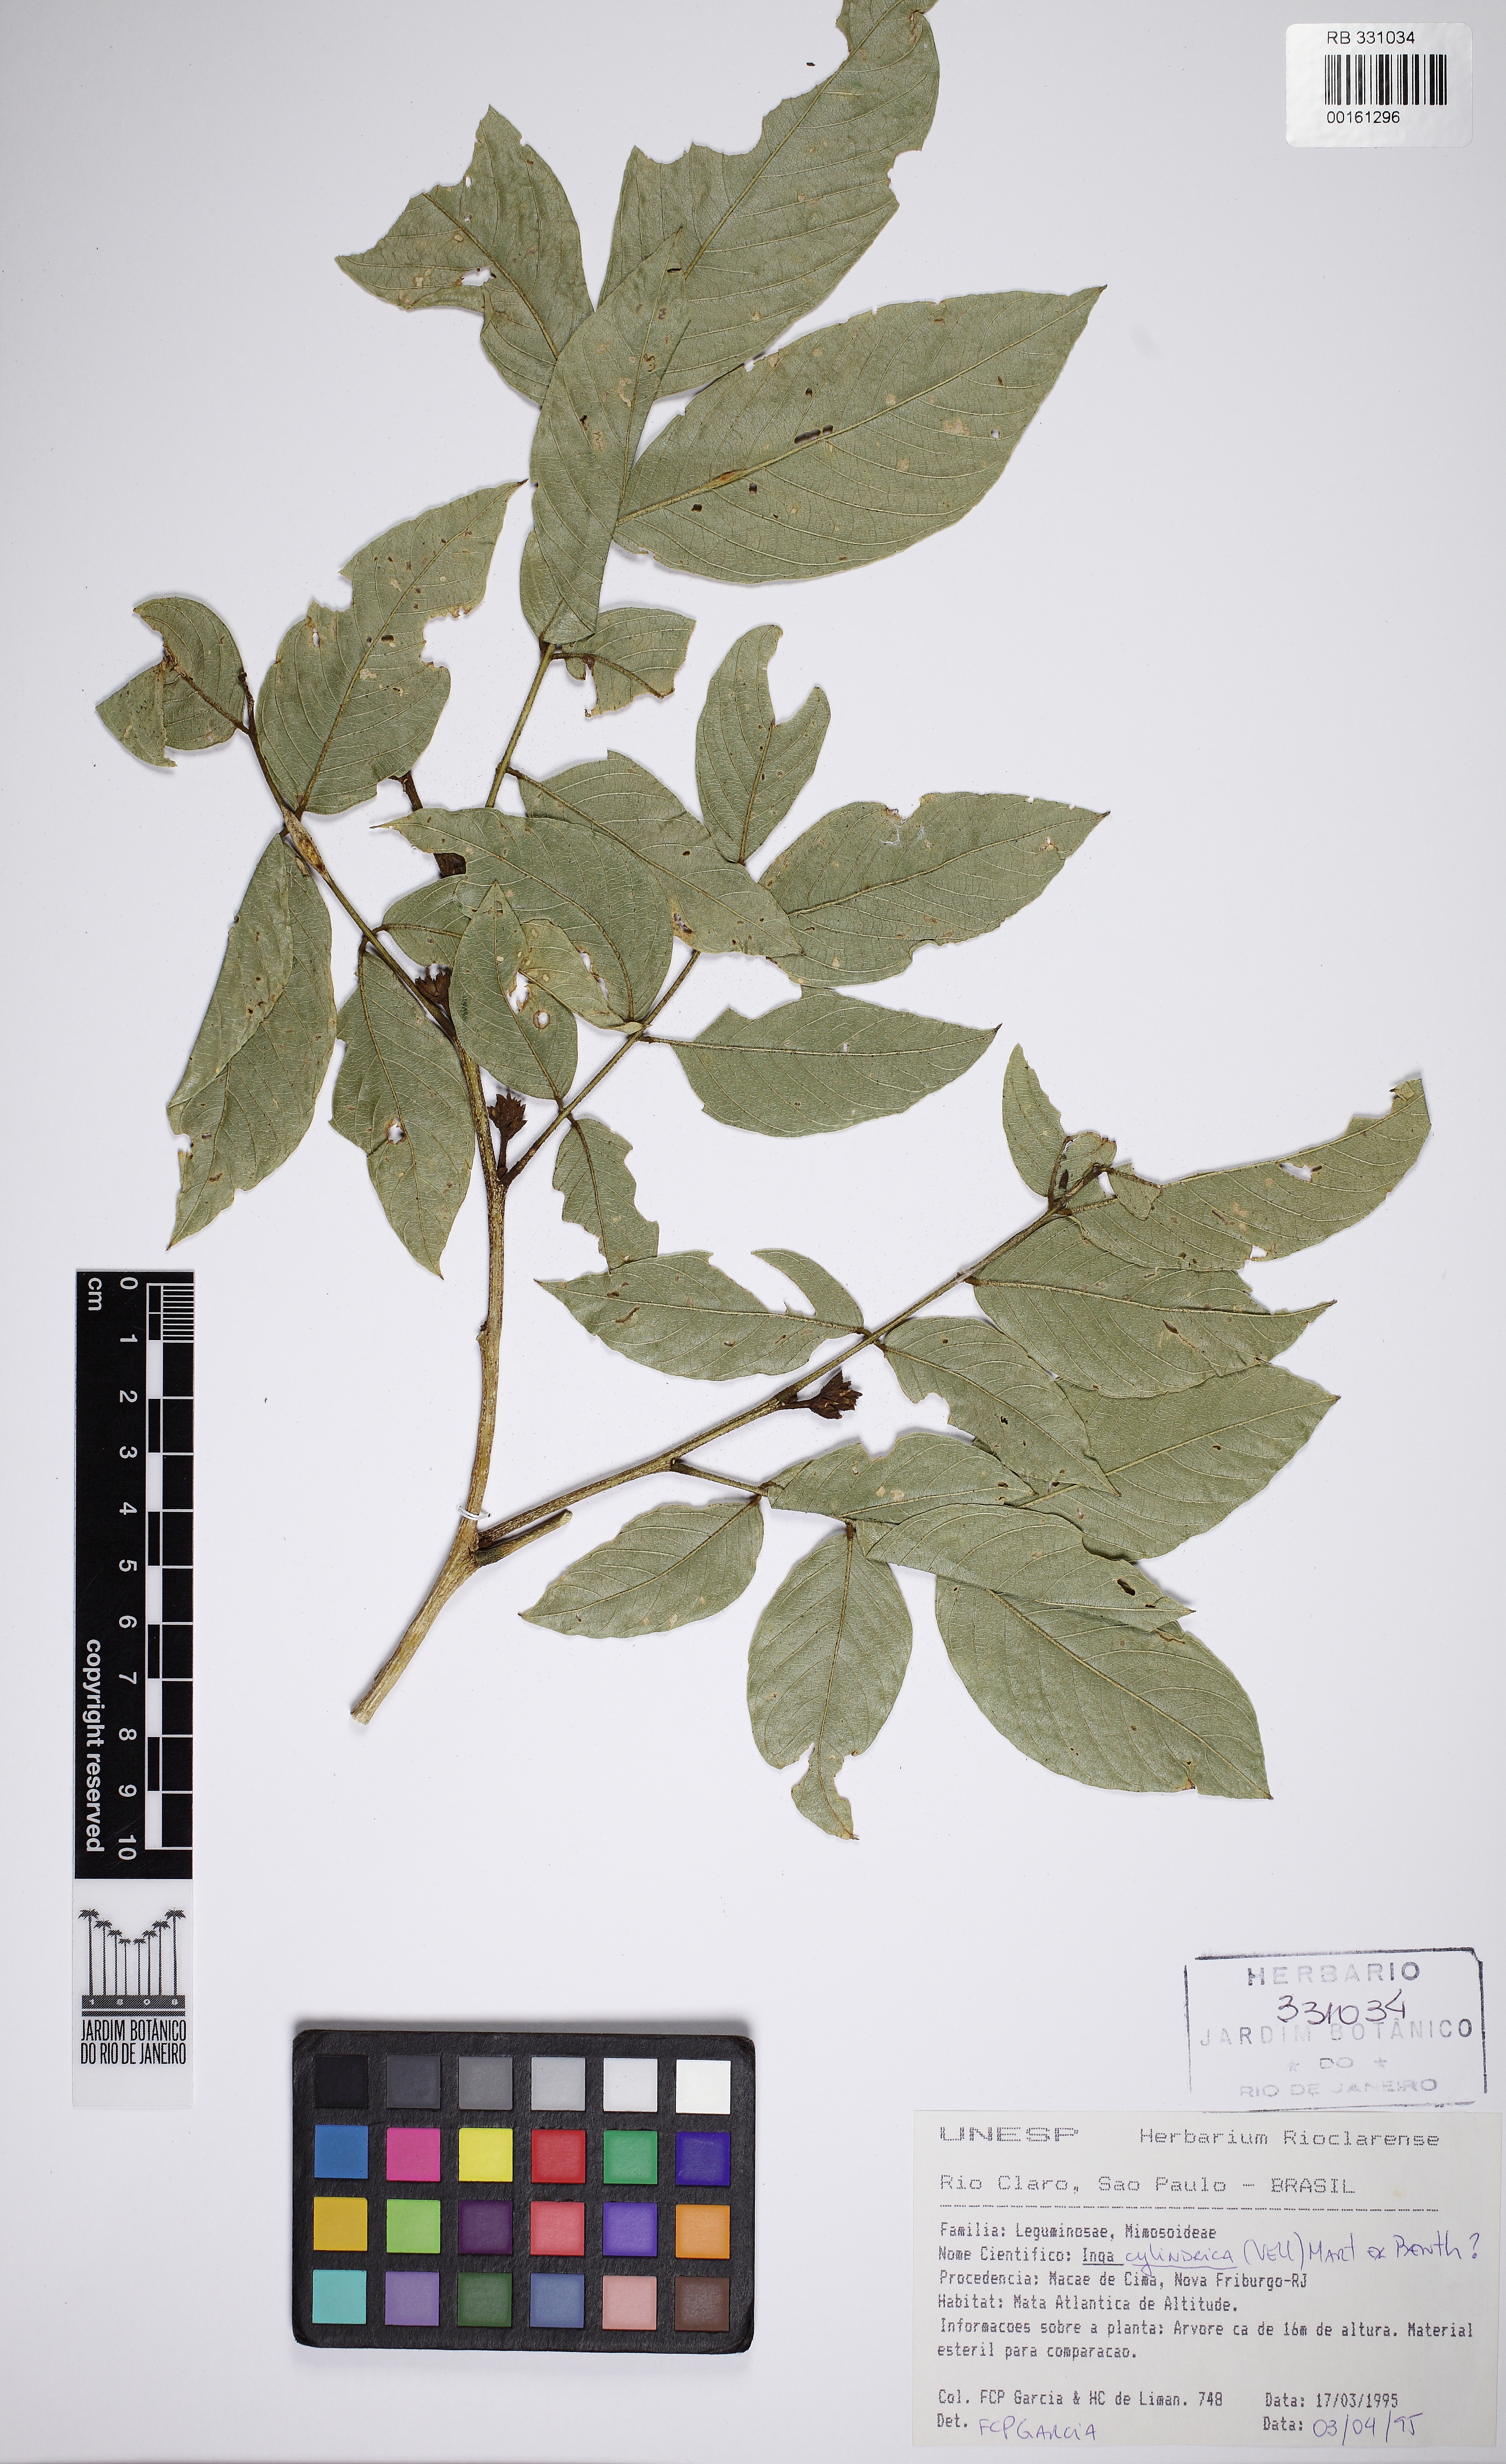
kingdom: Plantae
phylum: Tracheophyta
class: Magnoliopsida
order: Fabales
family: Fabaceae
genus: Inga
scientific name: Inga cylindrica
